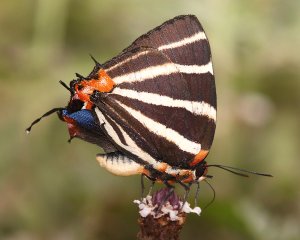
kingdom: Animalia
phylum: Arthropoda
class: Insecta
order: Lepidoptera
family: Lycaenidae
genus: Thecla
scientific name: Thecla bathildis
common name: Zebra-striped Hairstreak
